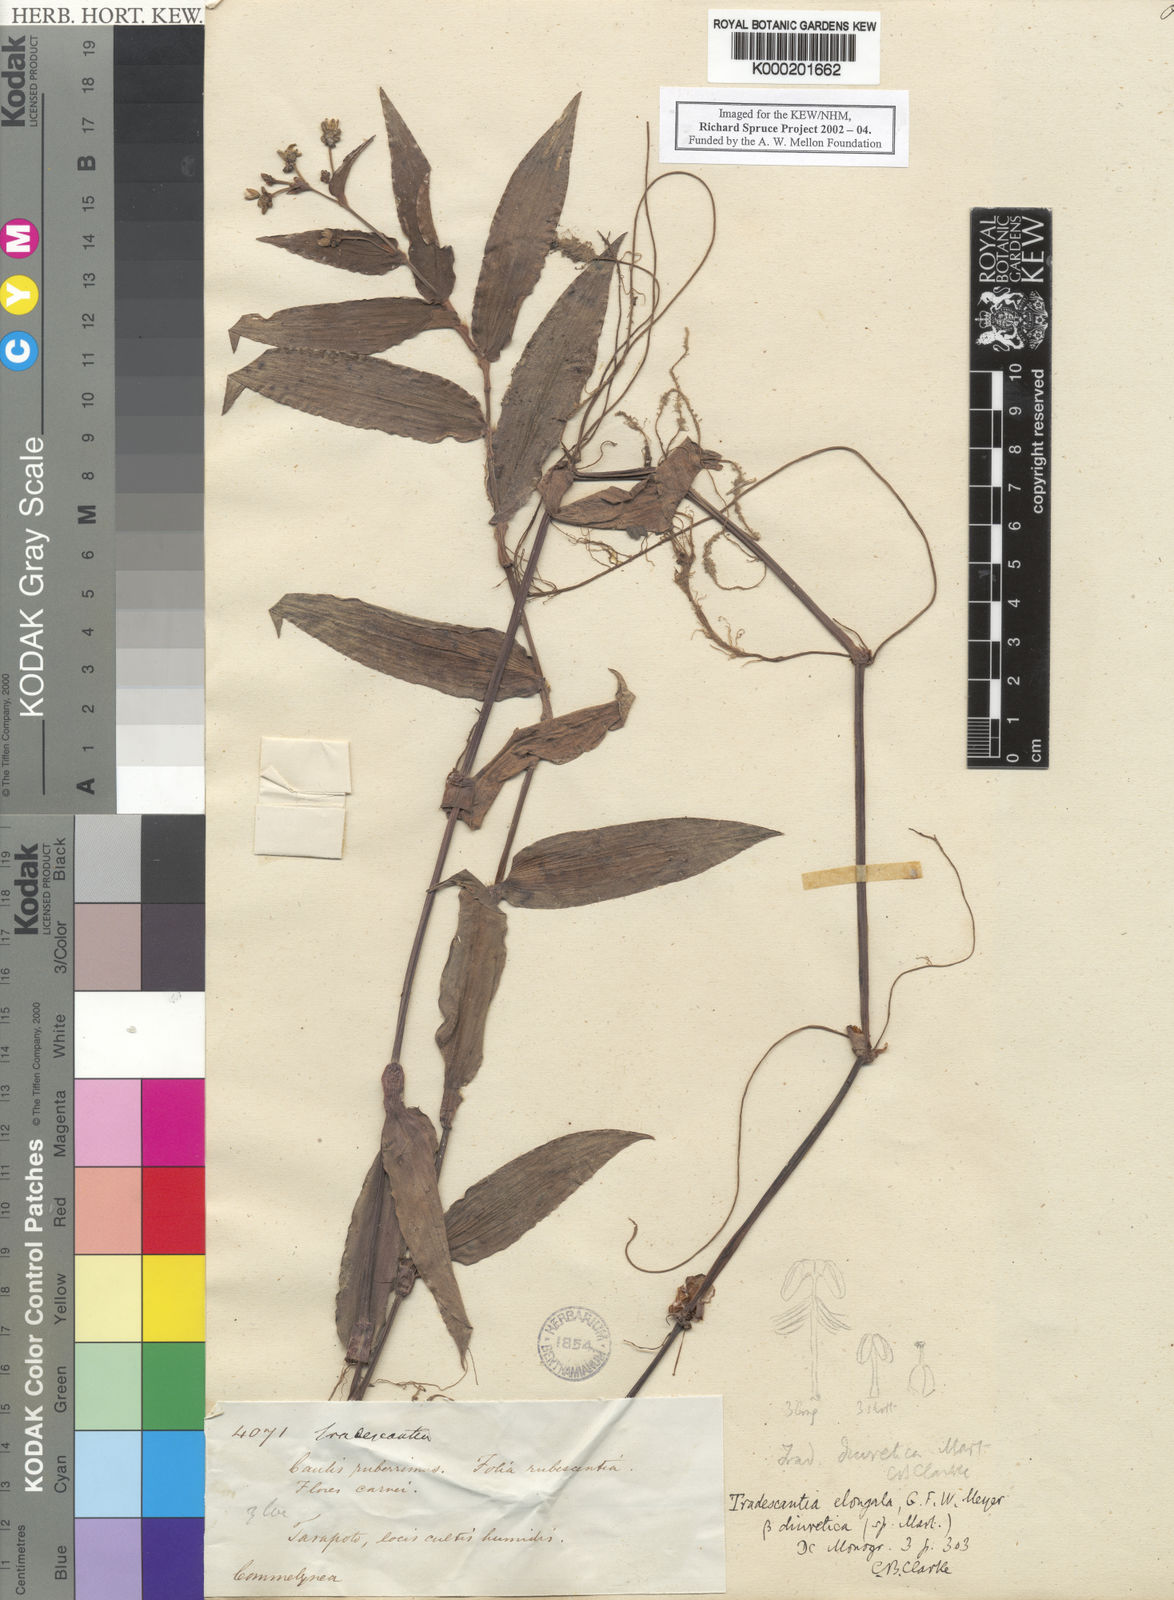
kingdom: Plantae
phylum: Tracheophyta
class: Liliopsida
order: Commelinales
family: Commelinaceae
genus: Callisia
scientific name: Callisia diuretica
